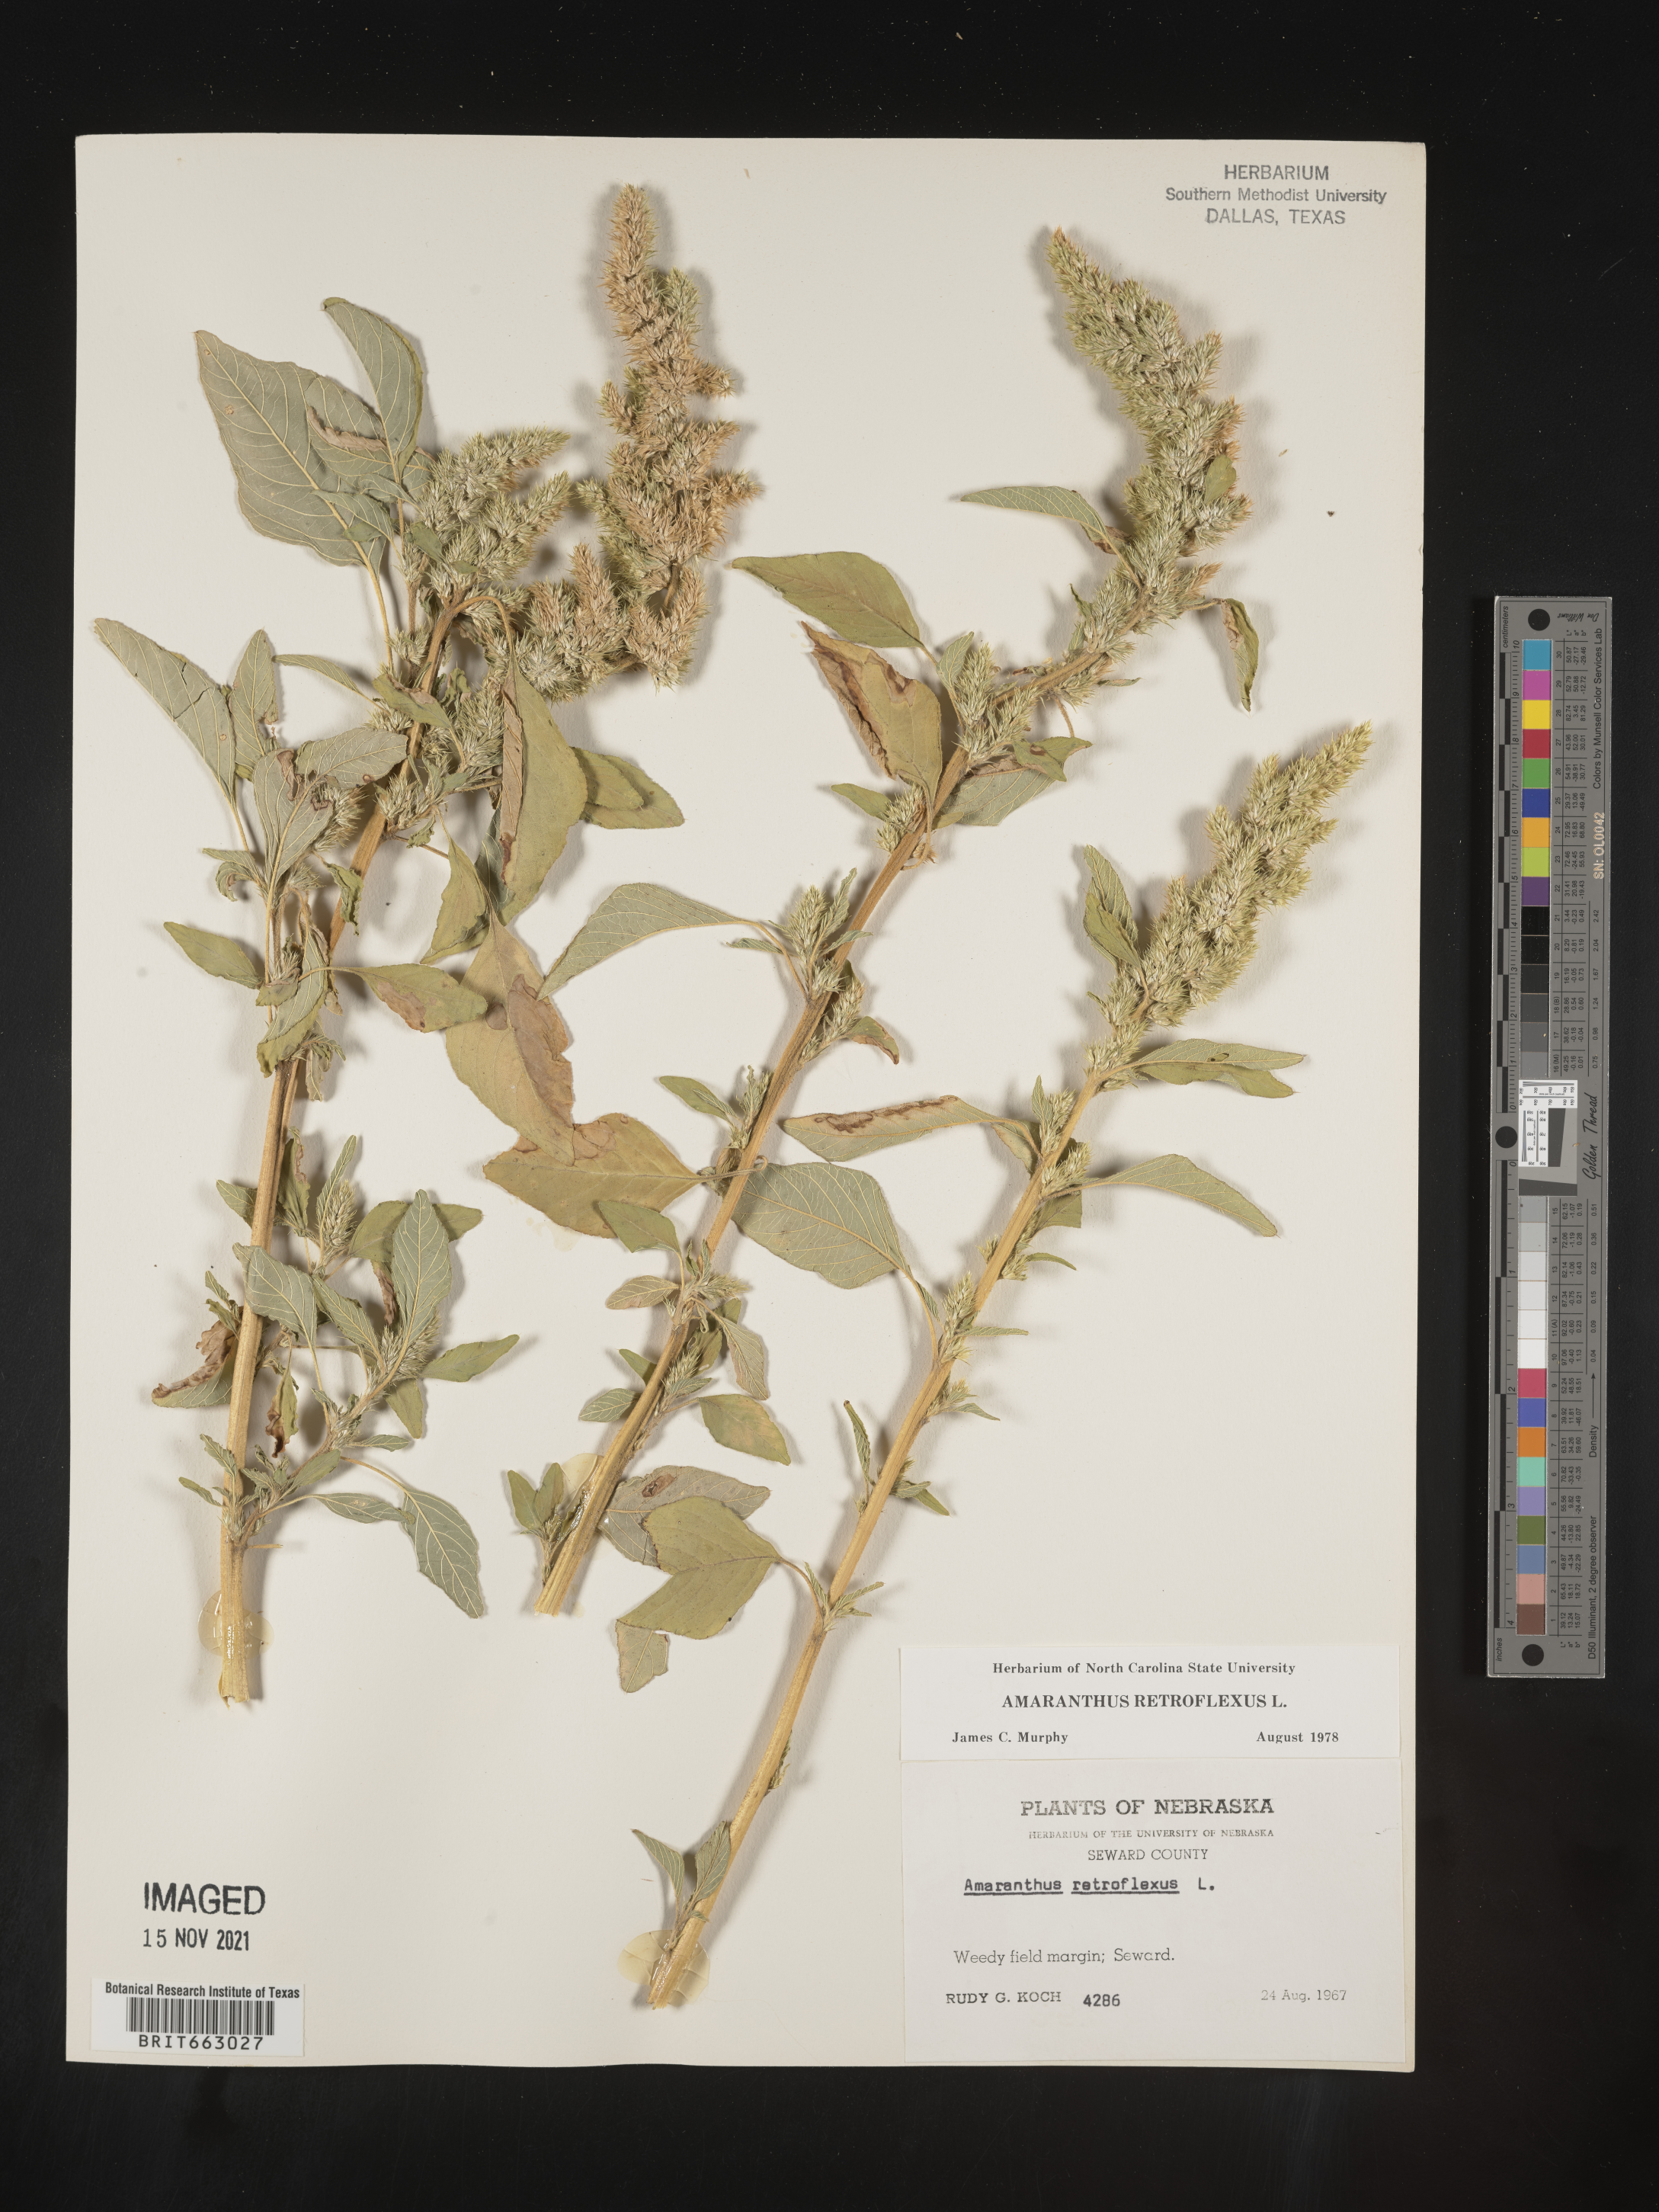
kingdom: Plantae
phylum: Tracheophyta
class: Magnoliopsida
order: Caryophyllales
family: Amaranthaceae
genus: Amaranthus
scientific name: Amaranthus retroflexus
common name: Redroot amaranth
